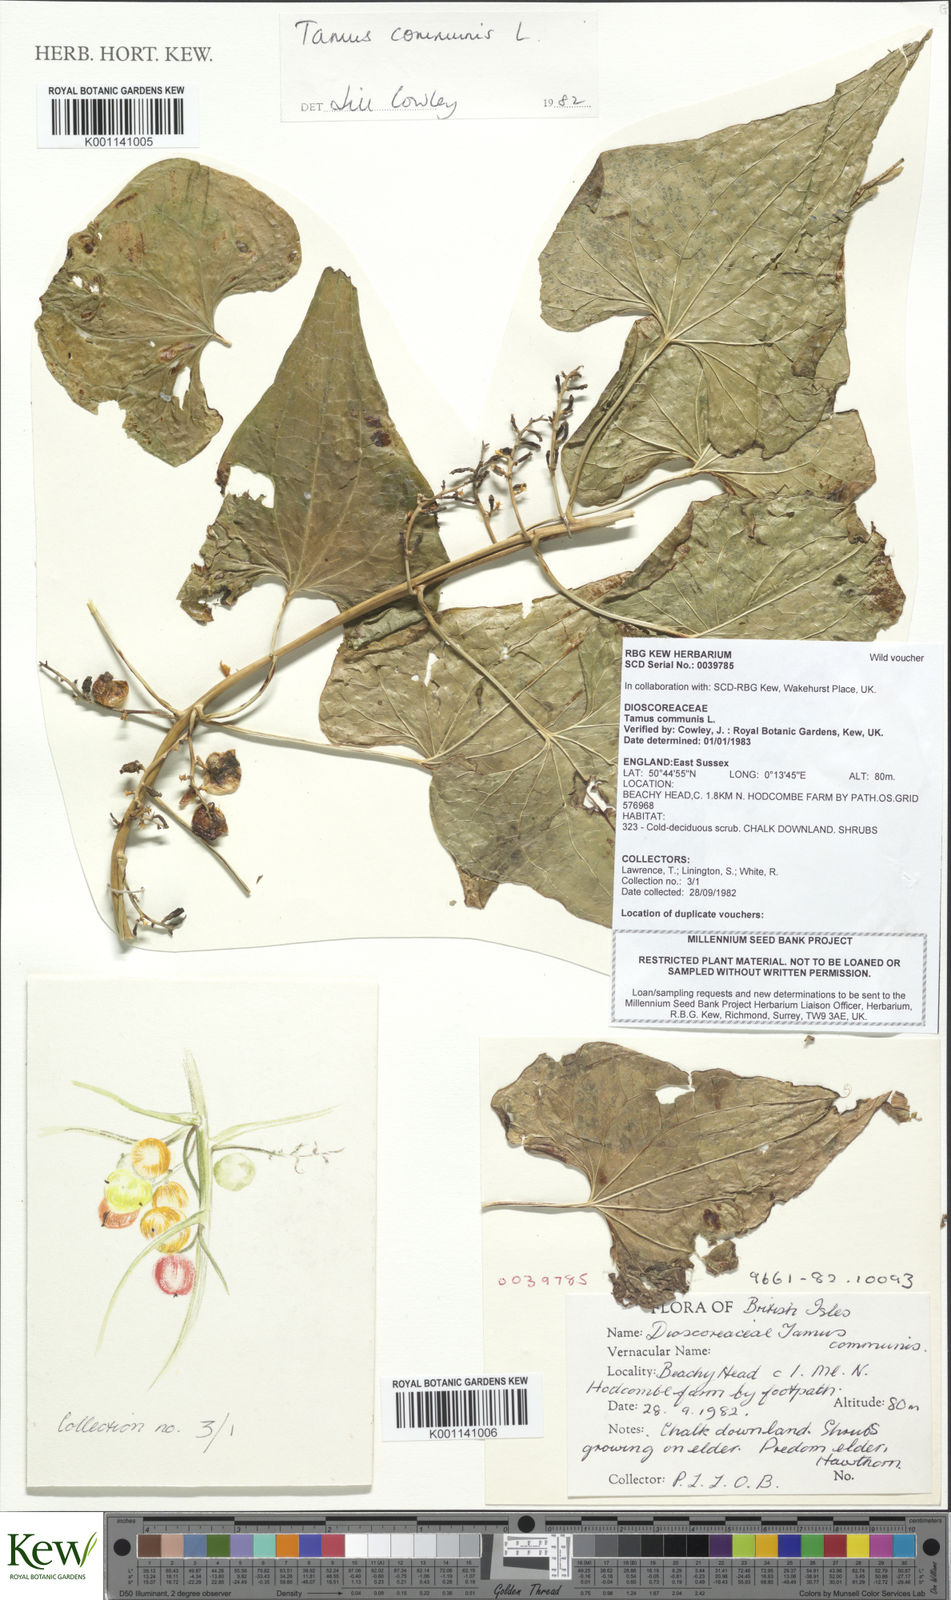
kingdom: Plantae
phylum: Tracheophyta
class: Liliopsida
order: Dioscoreales
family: Dioscoreaceae
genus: Dioscorea
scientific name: Dioscorea communis
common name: Black-bindweed
